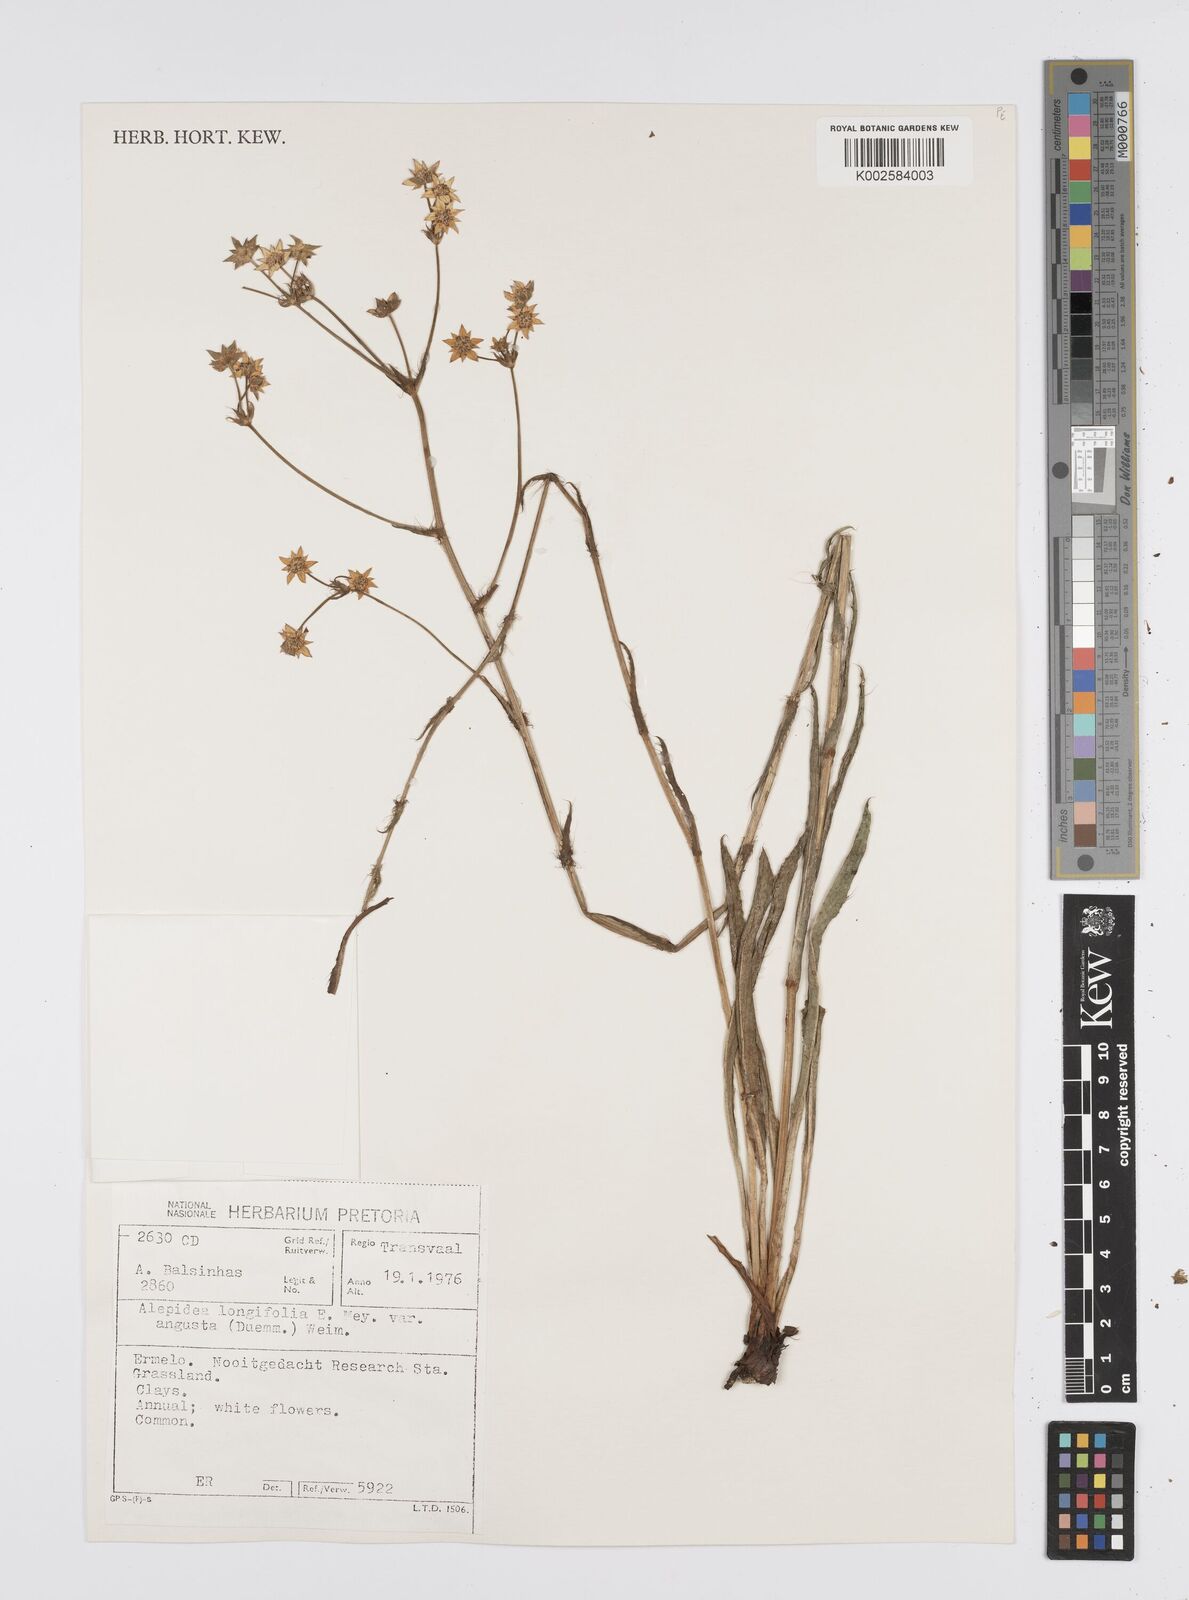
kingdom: Plantae
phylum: Tracheophyta
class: Magnoliopsida
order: Apiales
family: Apiaceae
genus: Alepidea
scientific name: Alepidea
